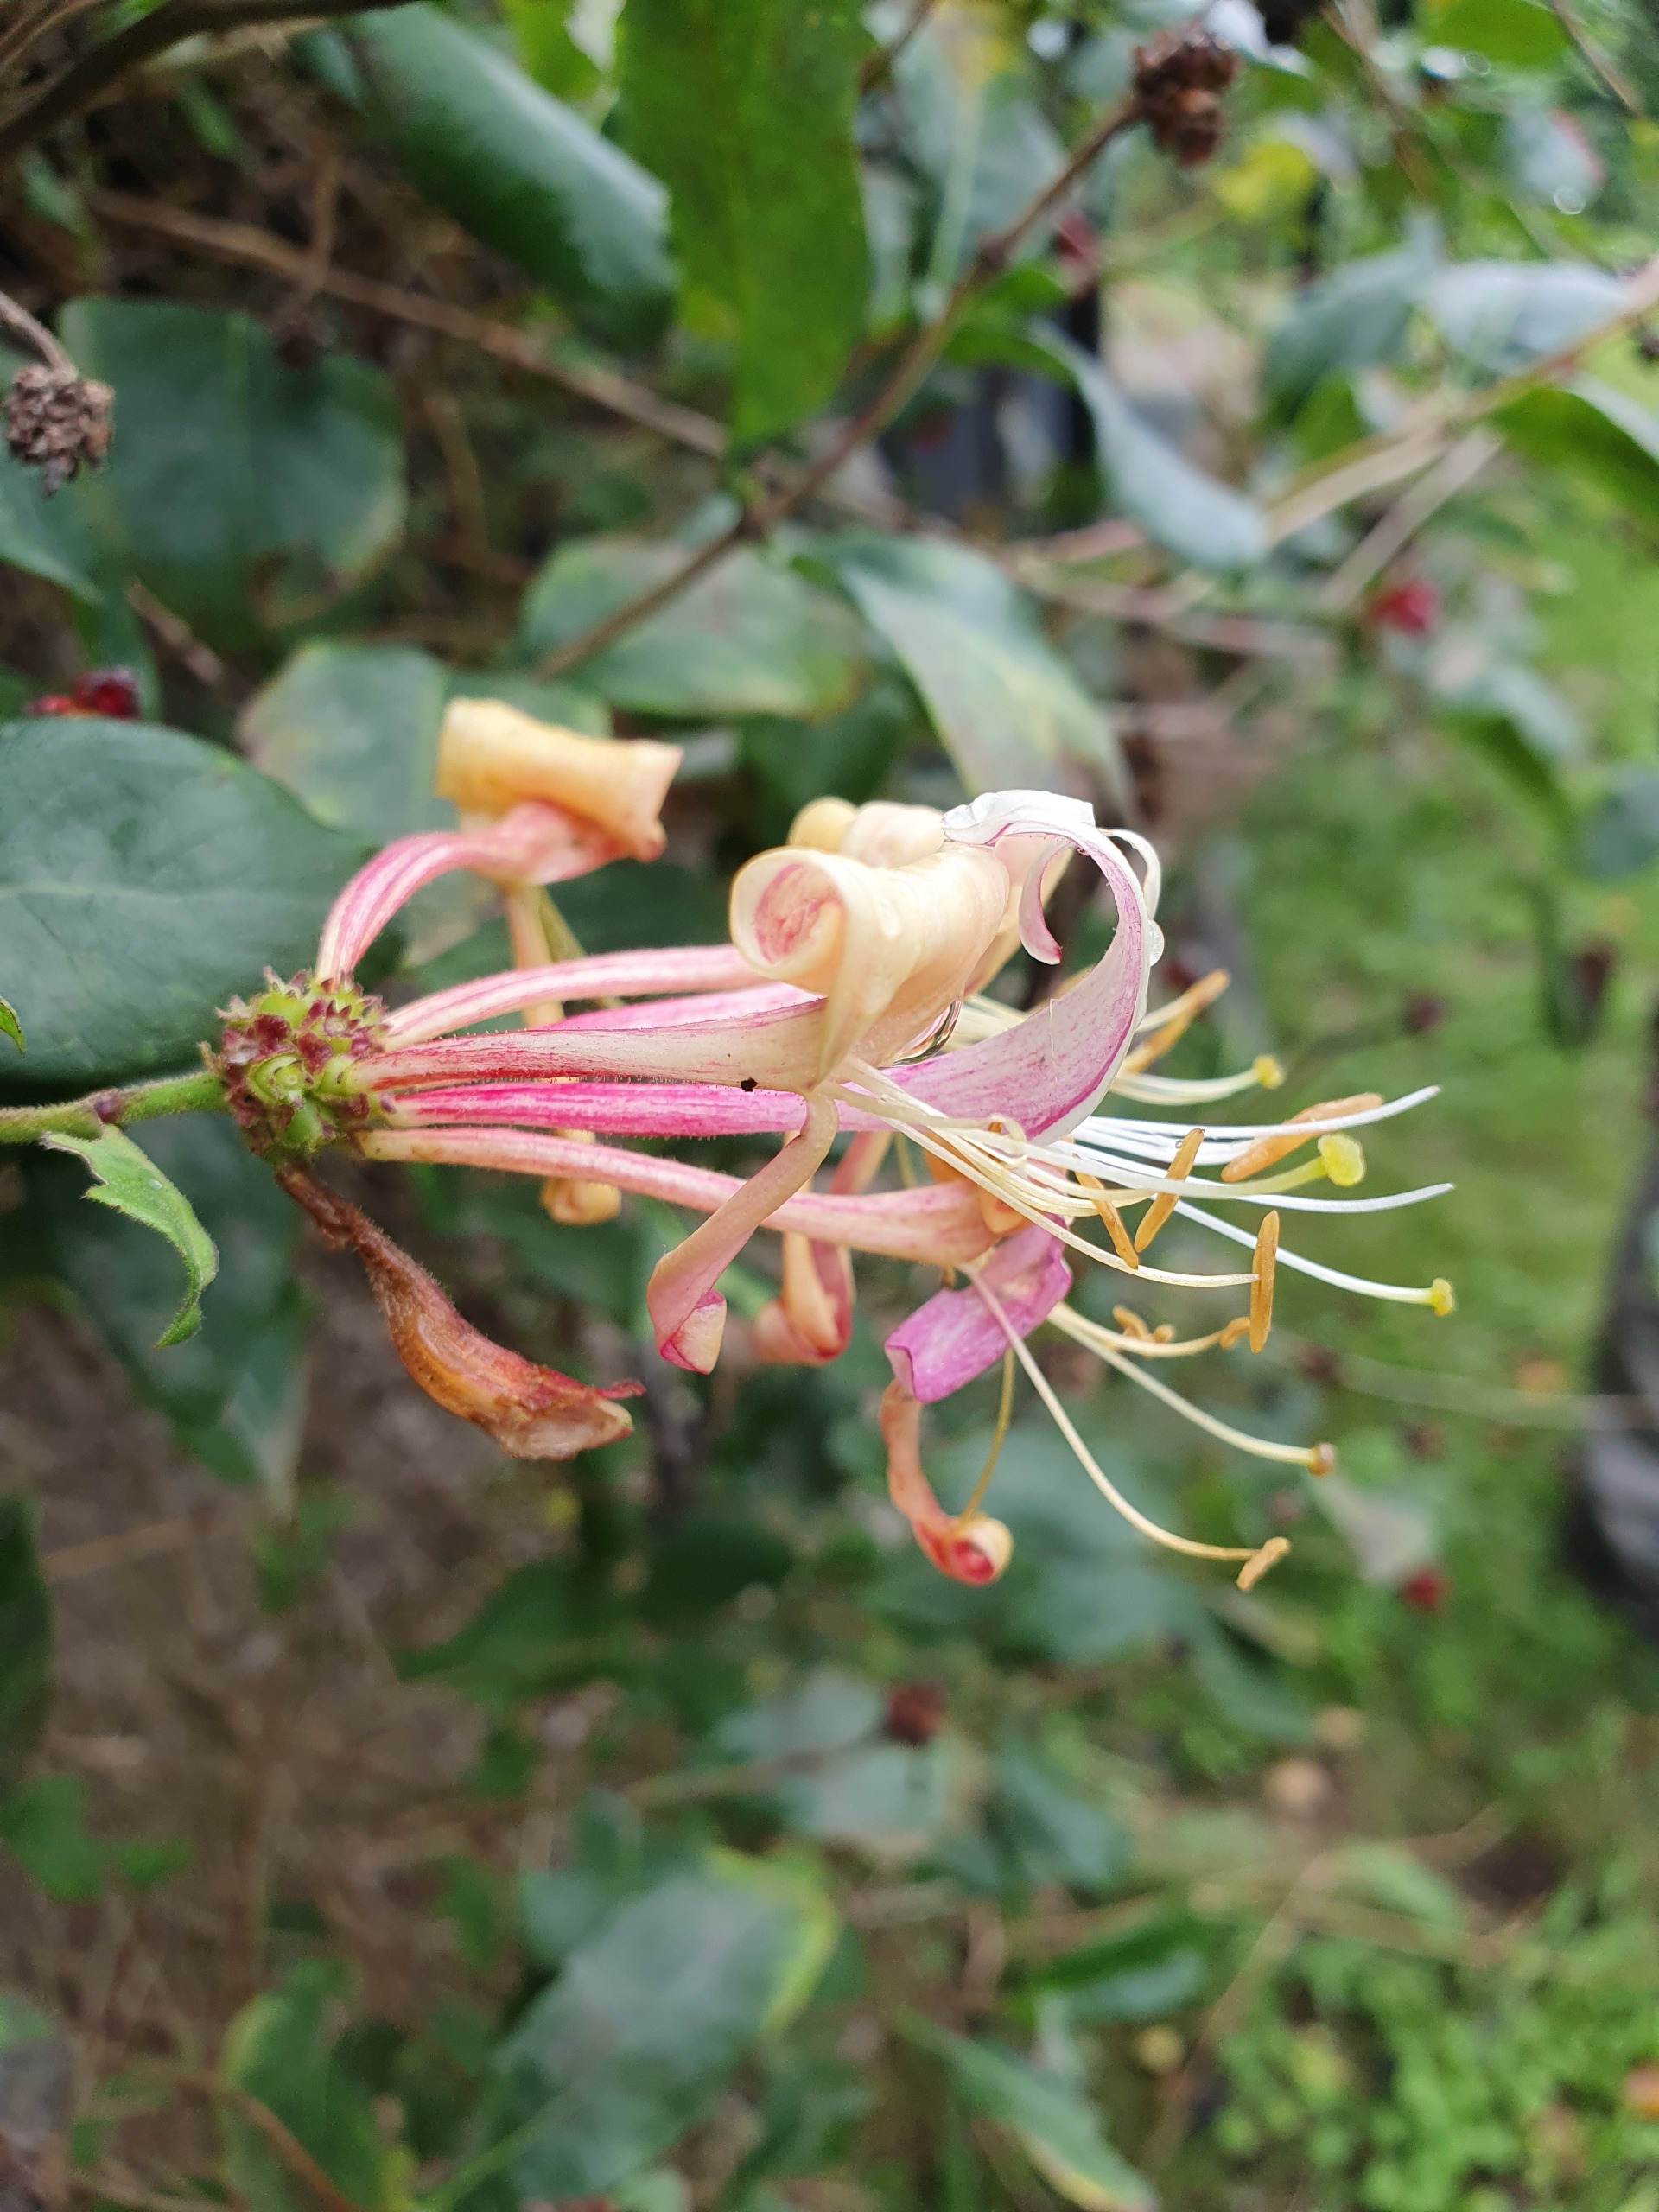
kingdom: Plantae
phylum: Tracheophyta
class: Magnoliopsida
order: Dipsacales
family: Caprifoliaceae
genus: Lonicera
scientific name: Lonicera periclymenum
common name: Almindelig gedeblad
